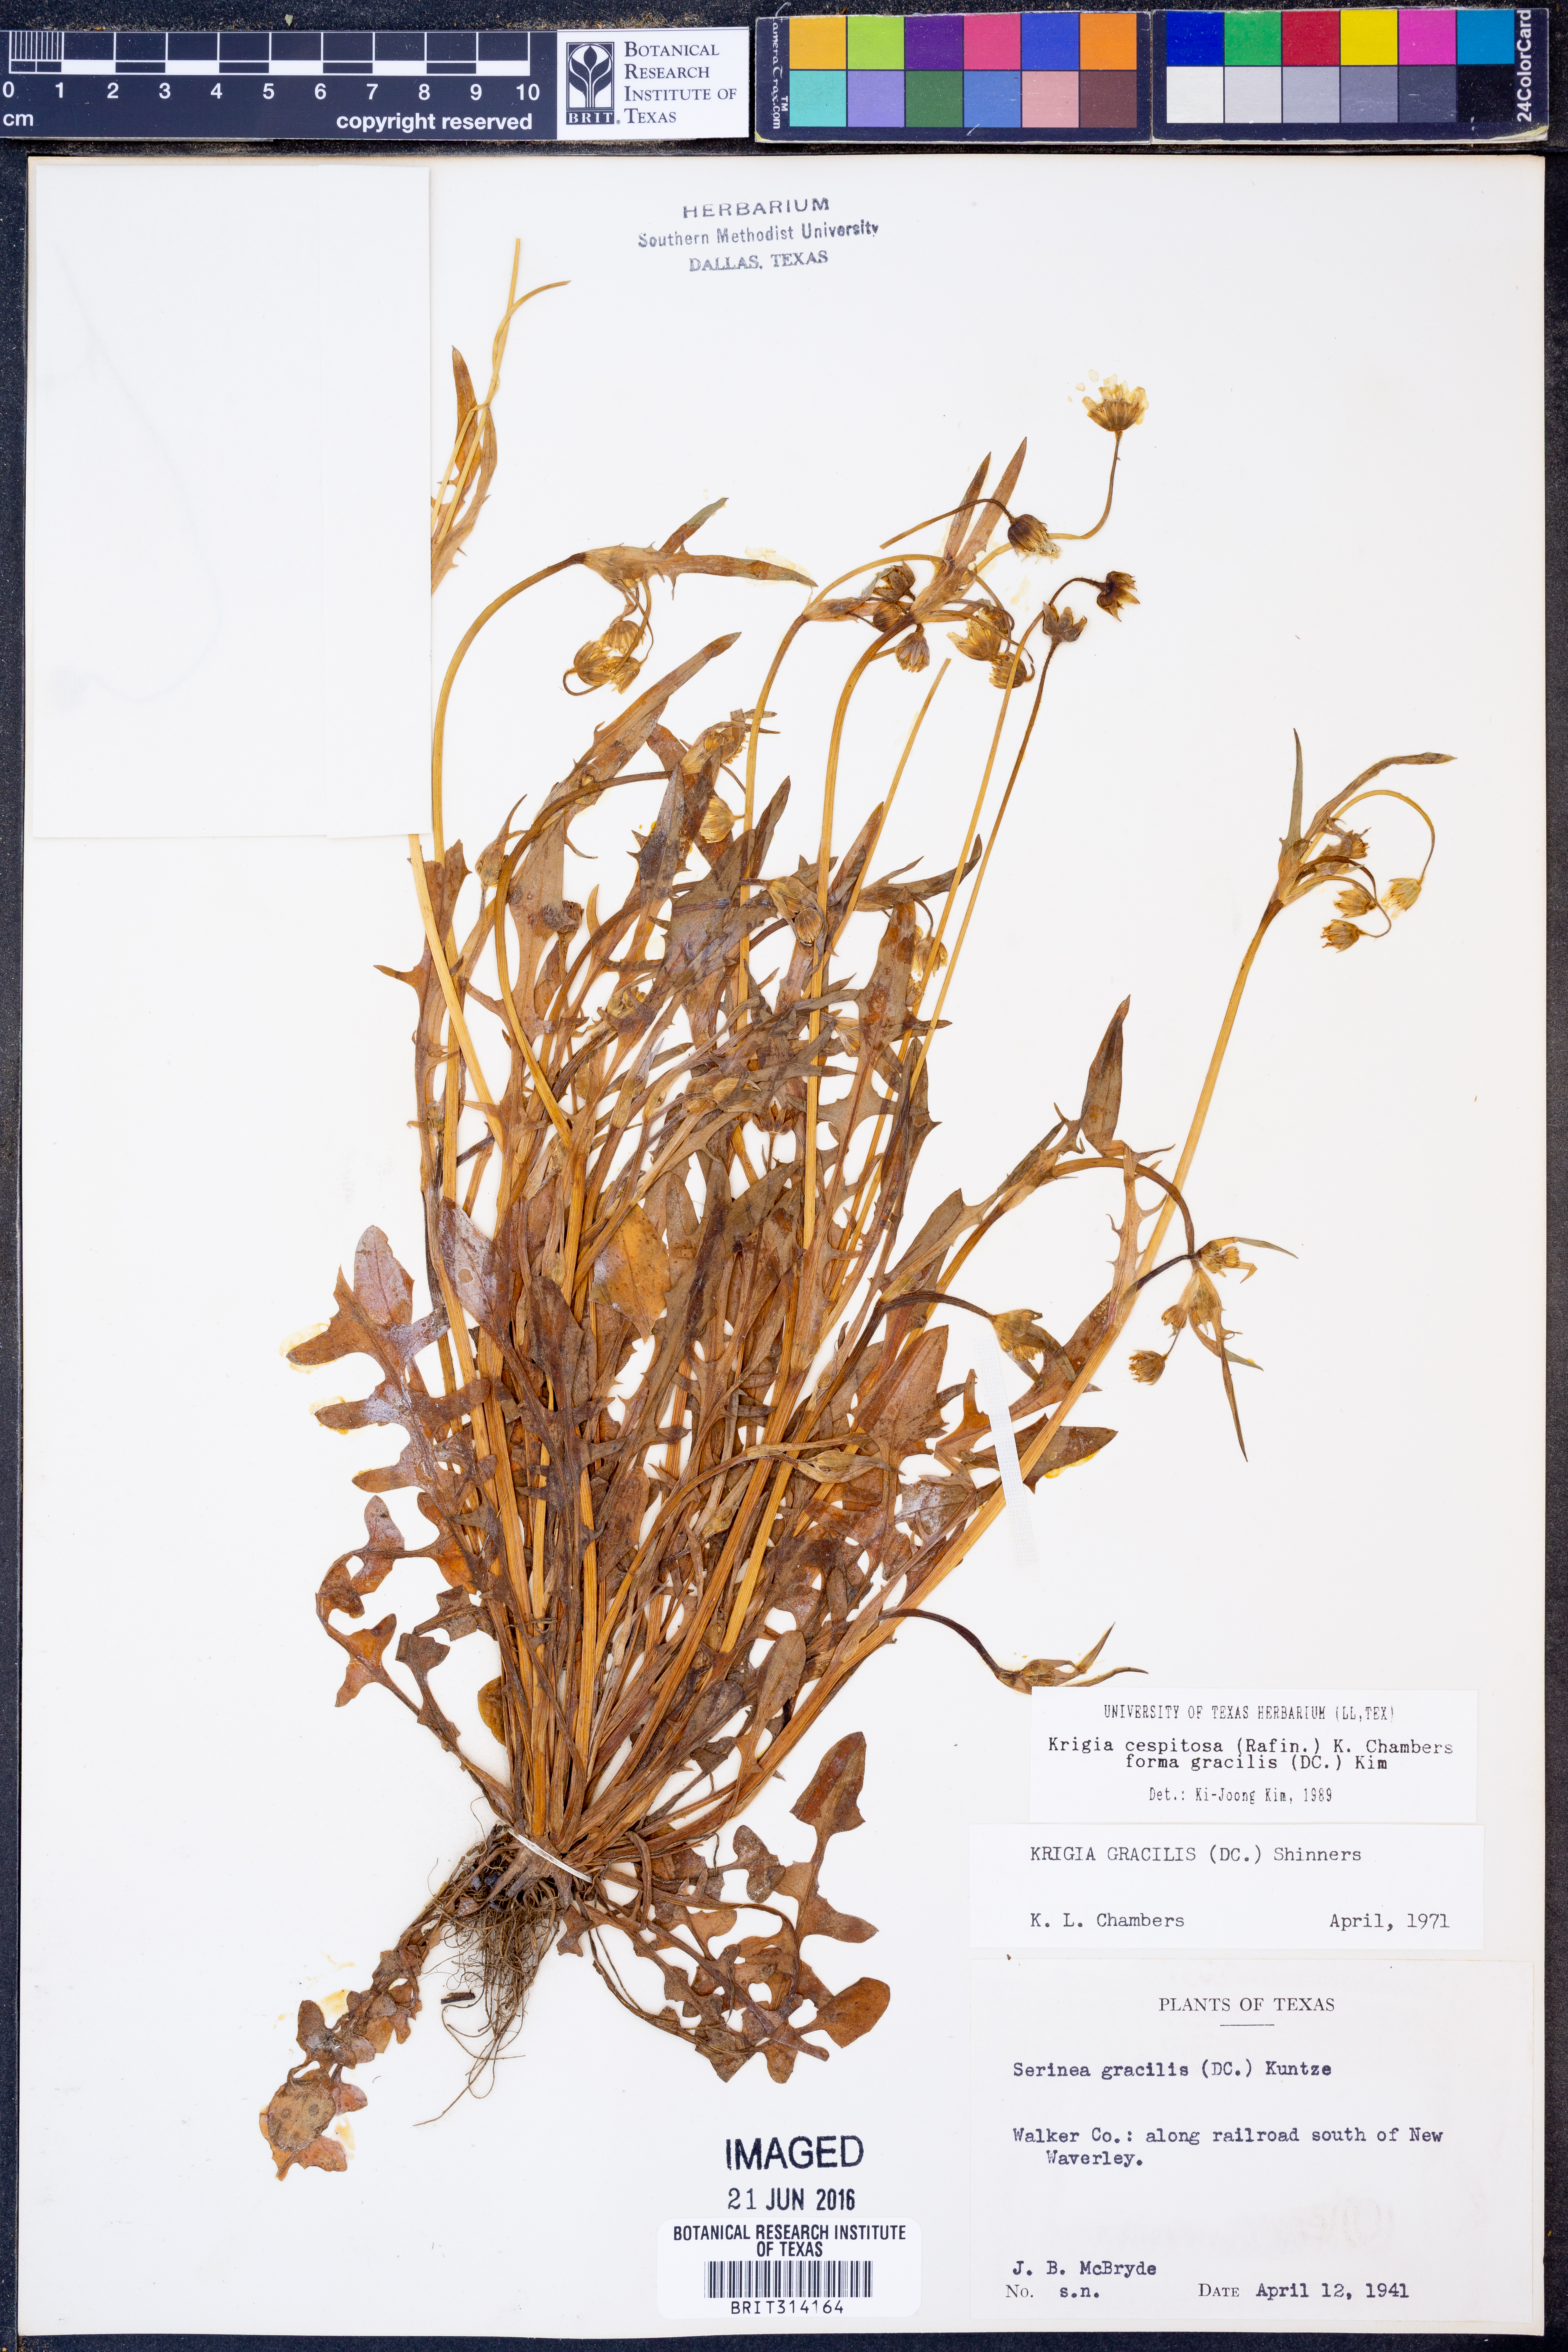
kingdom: Plantae
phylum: Tracheophyta
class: Magnoliopsida
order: Asterales
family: Asteraceae
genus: Krigia
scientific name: Krigia cespitosa
